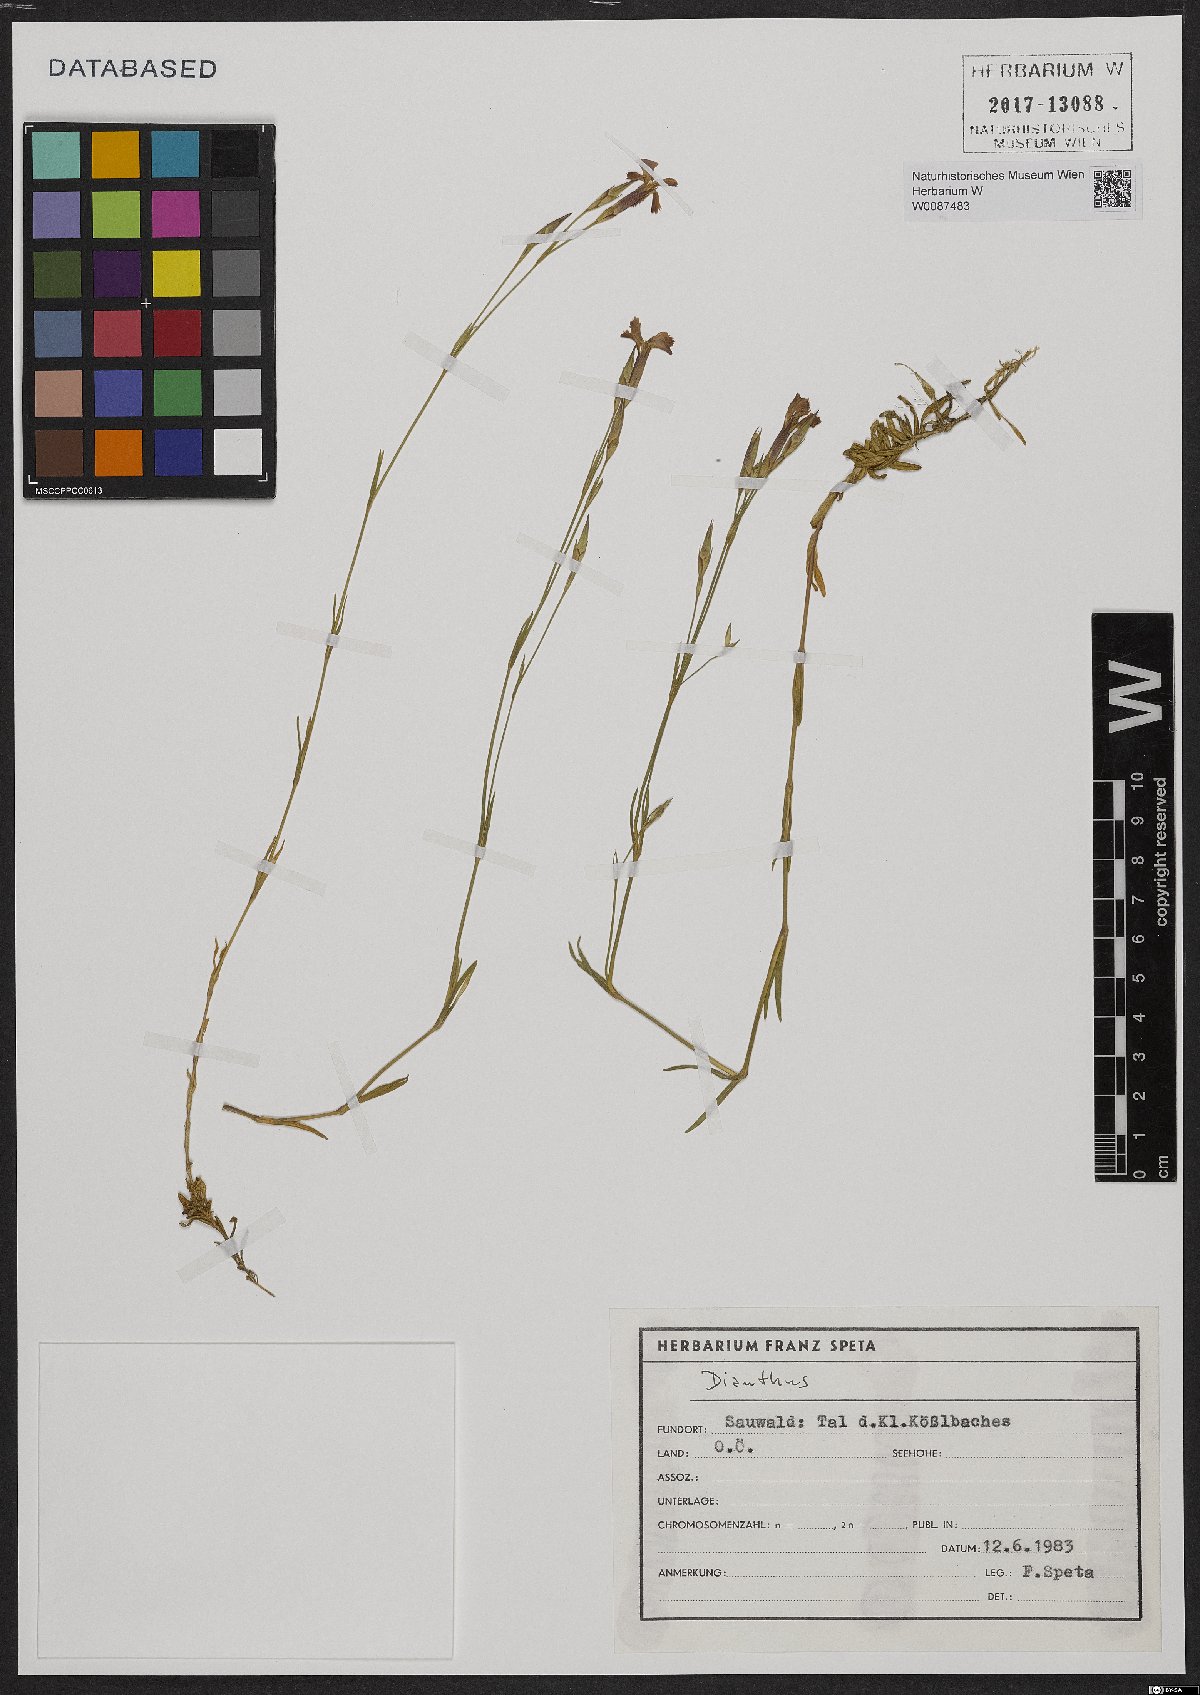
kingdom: Plantae
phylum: Tracheophyta
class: Magnoliopsida
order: Caryophyllales
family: Caryophyllaceae
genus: Dianthus
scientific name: Dianthus deltoides
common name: Maiden pink
